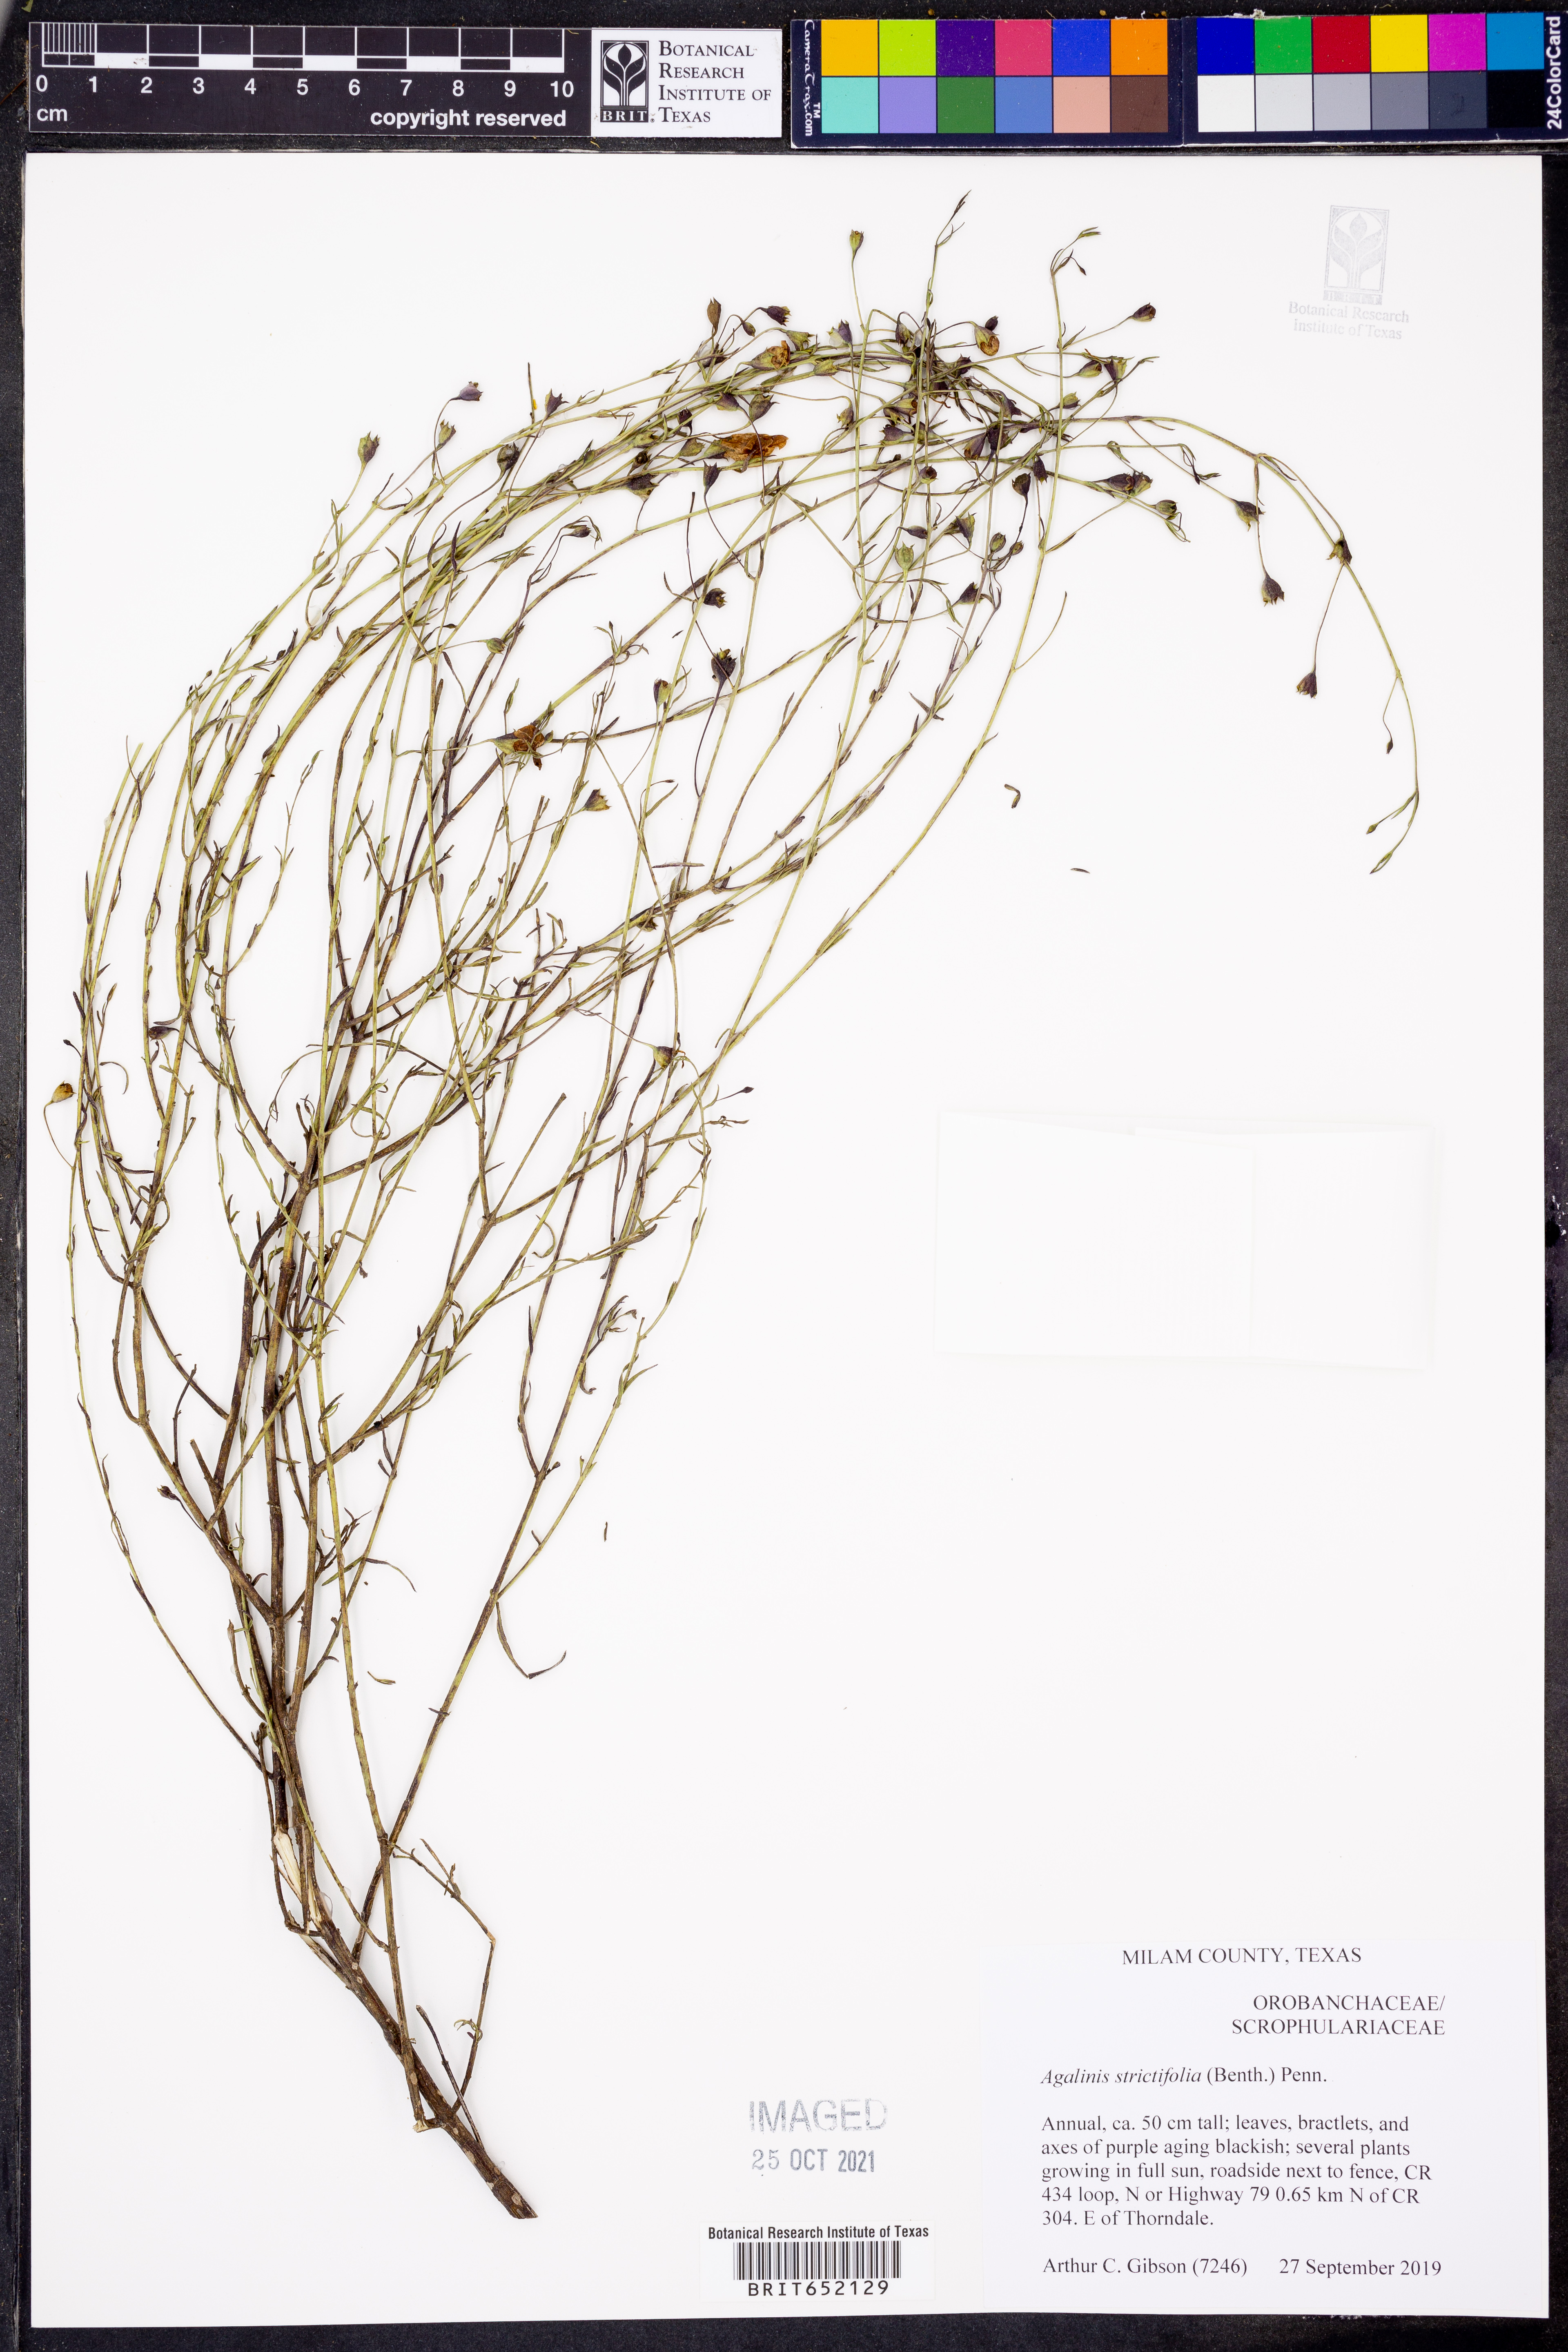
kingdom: Plantae
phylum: Tracheophyta
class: Magnoliopsida
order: Lamiales
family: Orobanchaceae
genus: Agalinis
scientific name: Agalinis strictifolia
